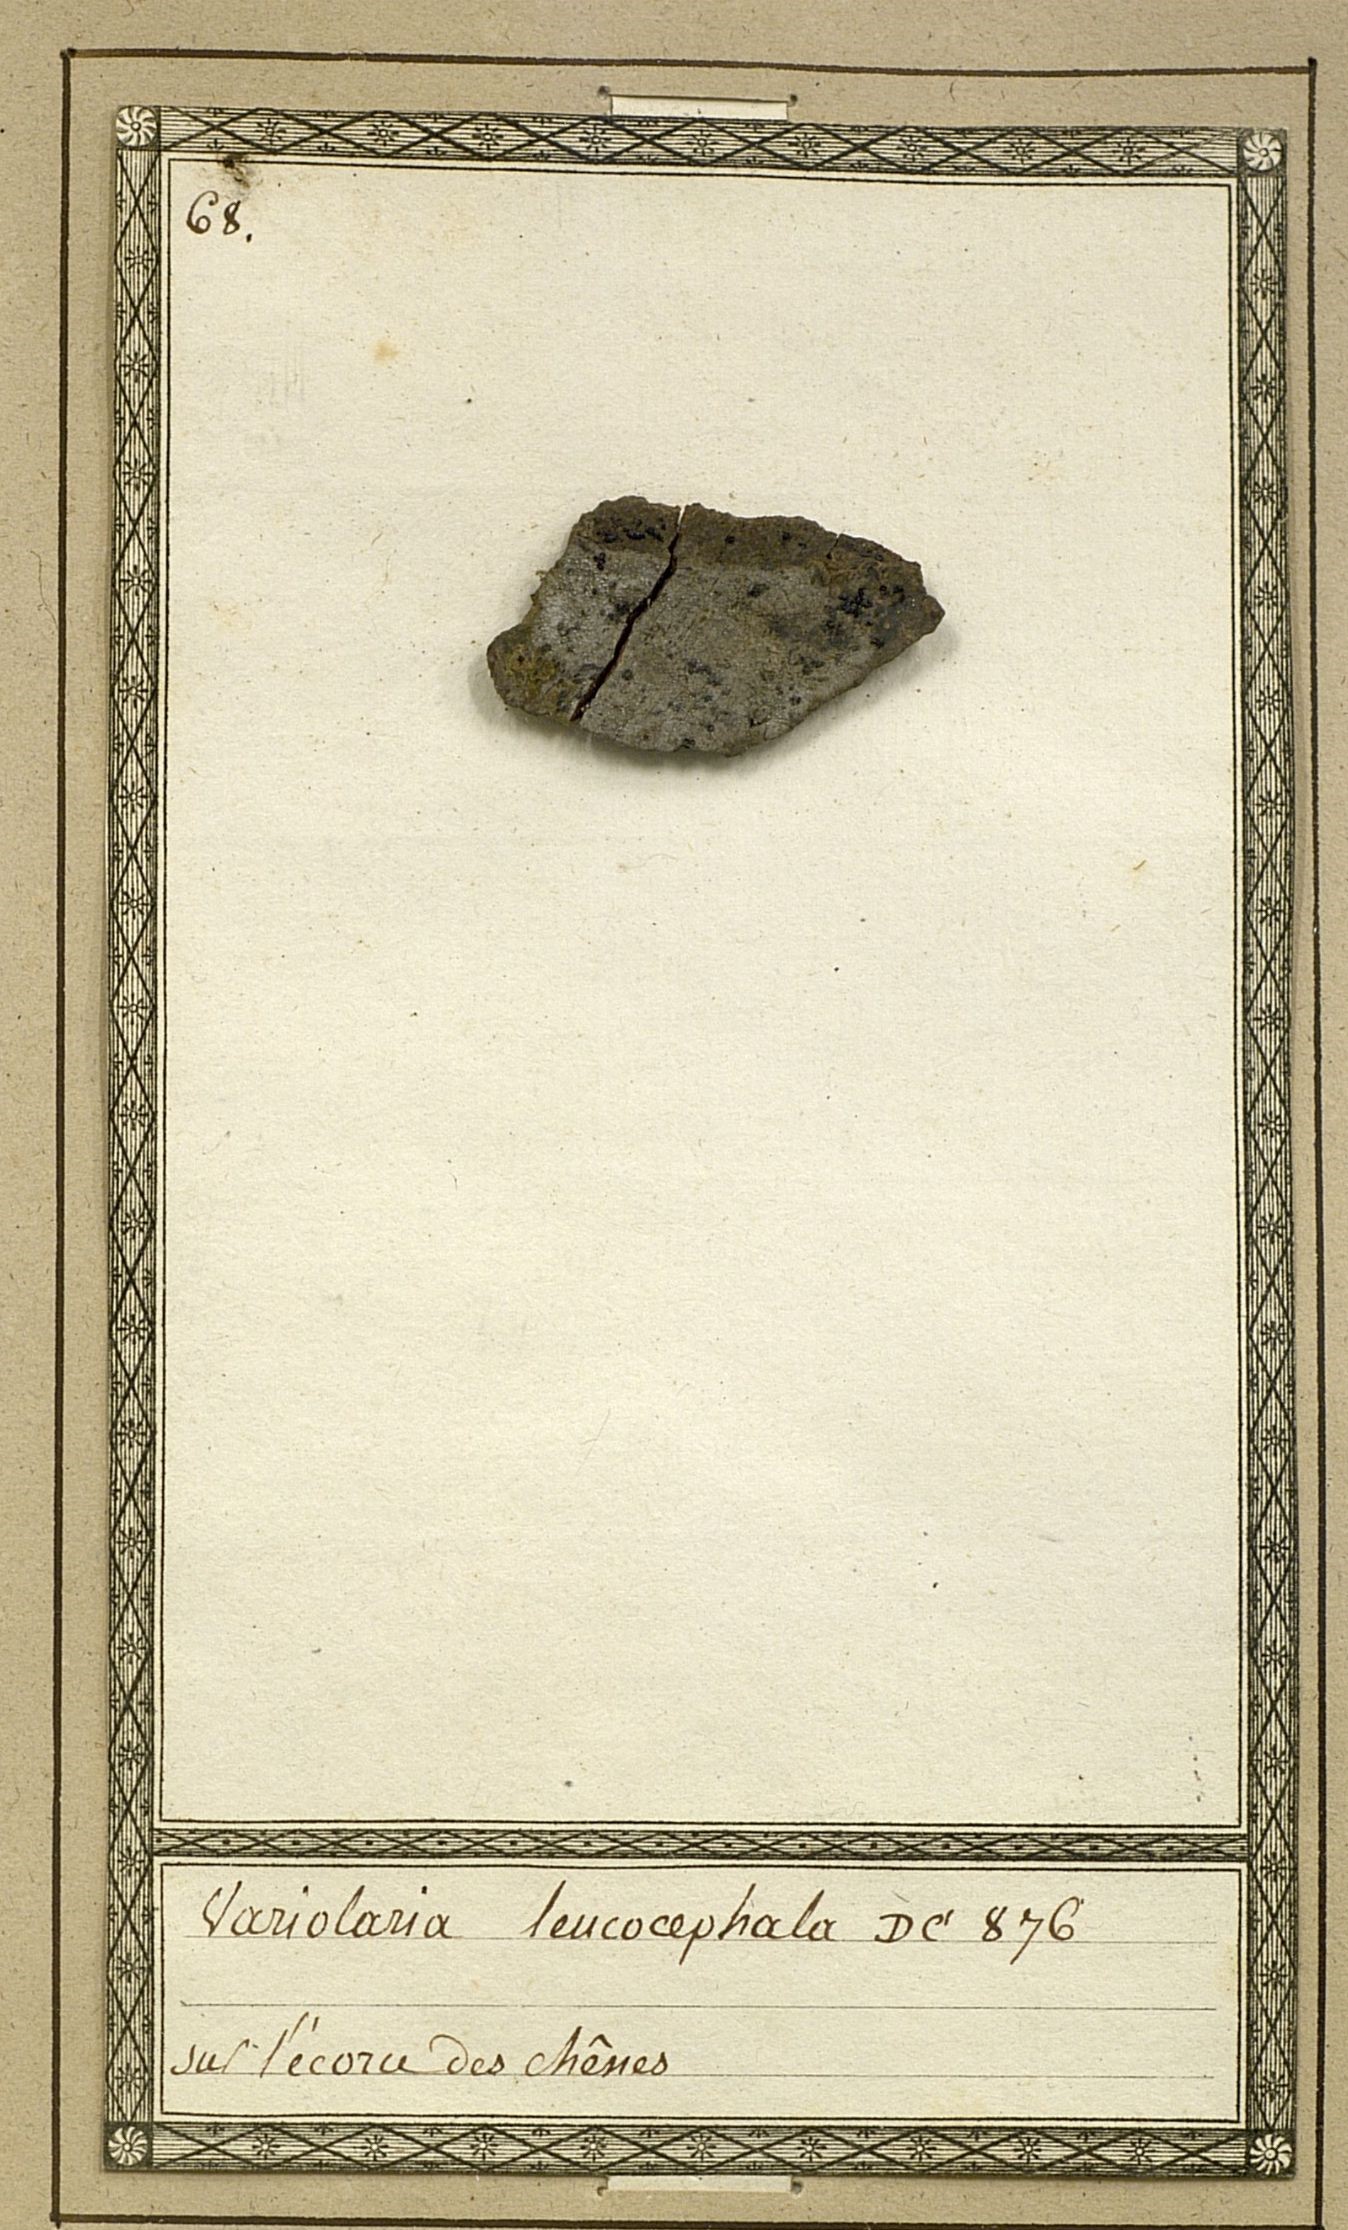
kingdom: Fungi
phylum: Ascomycota
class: Arthoniomycetes
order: Arthoniales
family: Roccellaceae
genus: Lecanactis
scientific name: Lecanactis abietina
